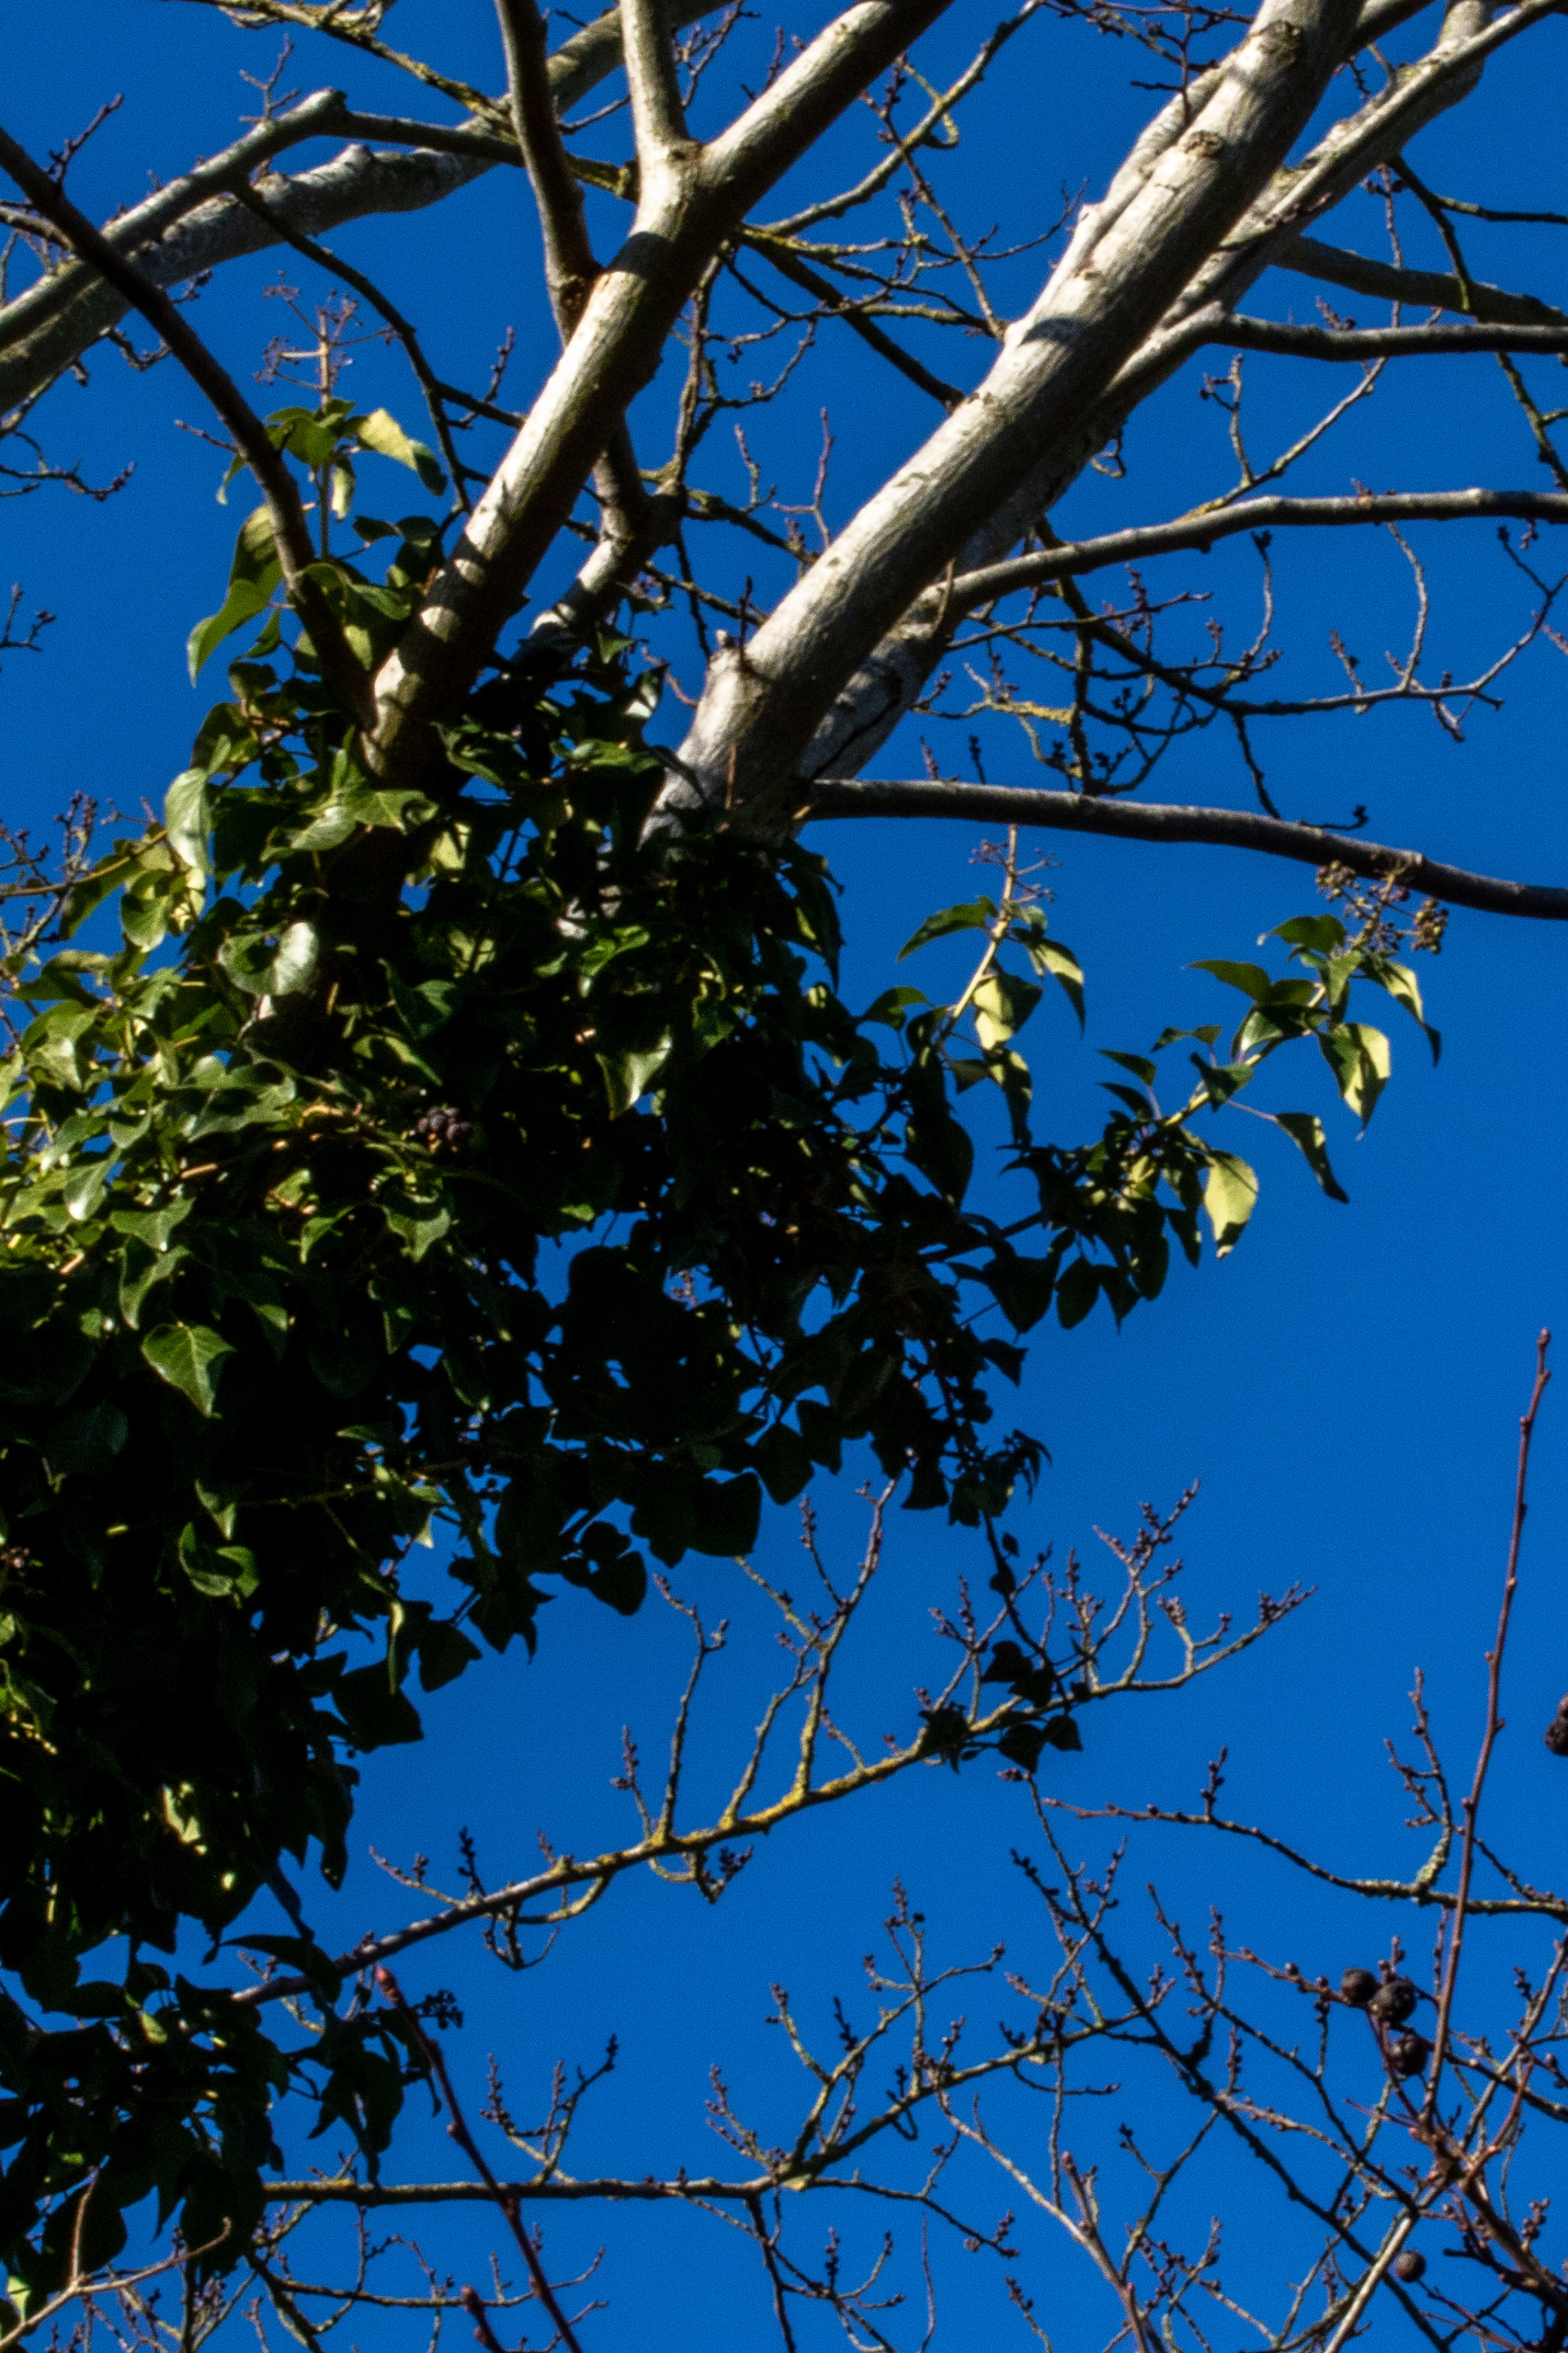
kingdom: Plantae
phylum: Tracheophyta
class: Magnoliopsida
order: Apiales
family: Araliaceae
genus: Hedera
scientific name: Hedera helix
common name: Vedbend
